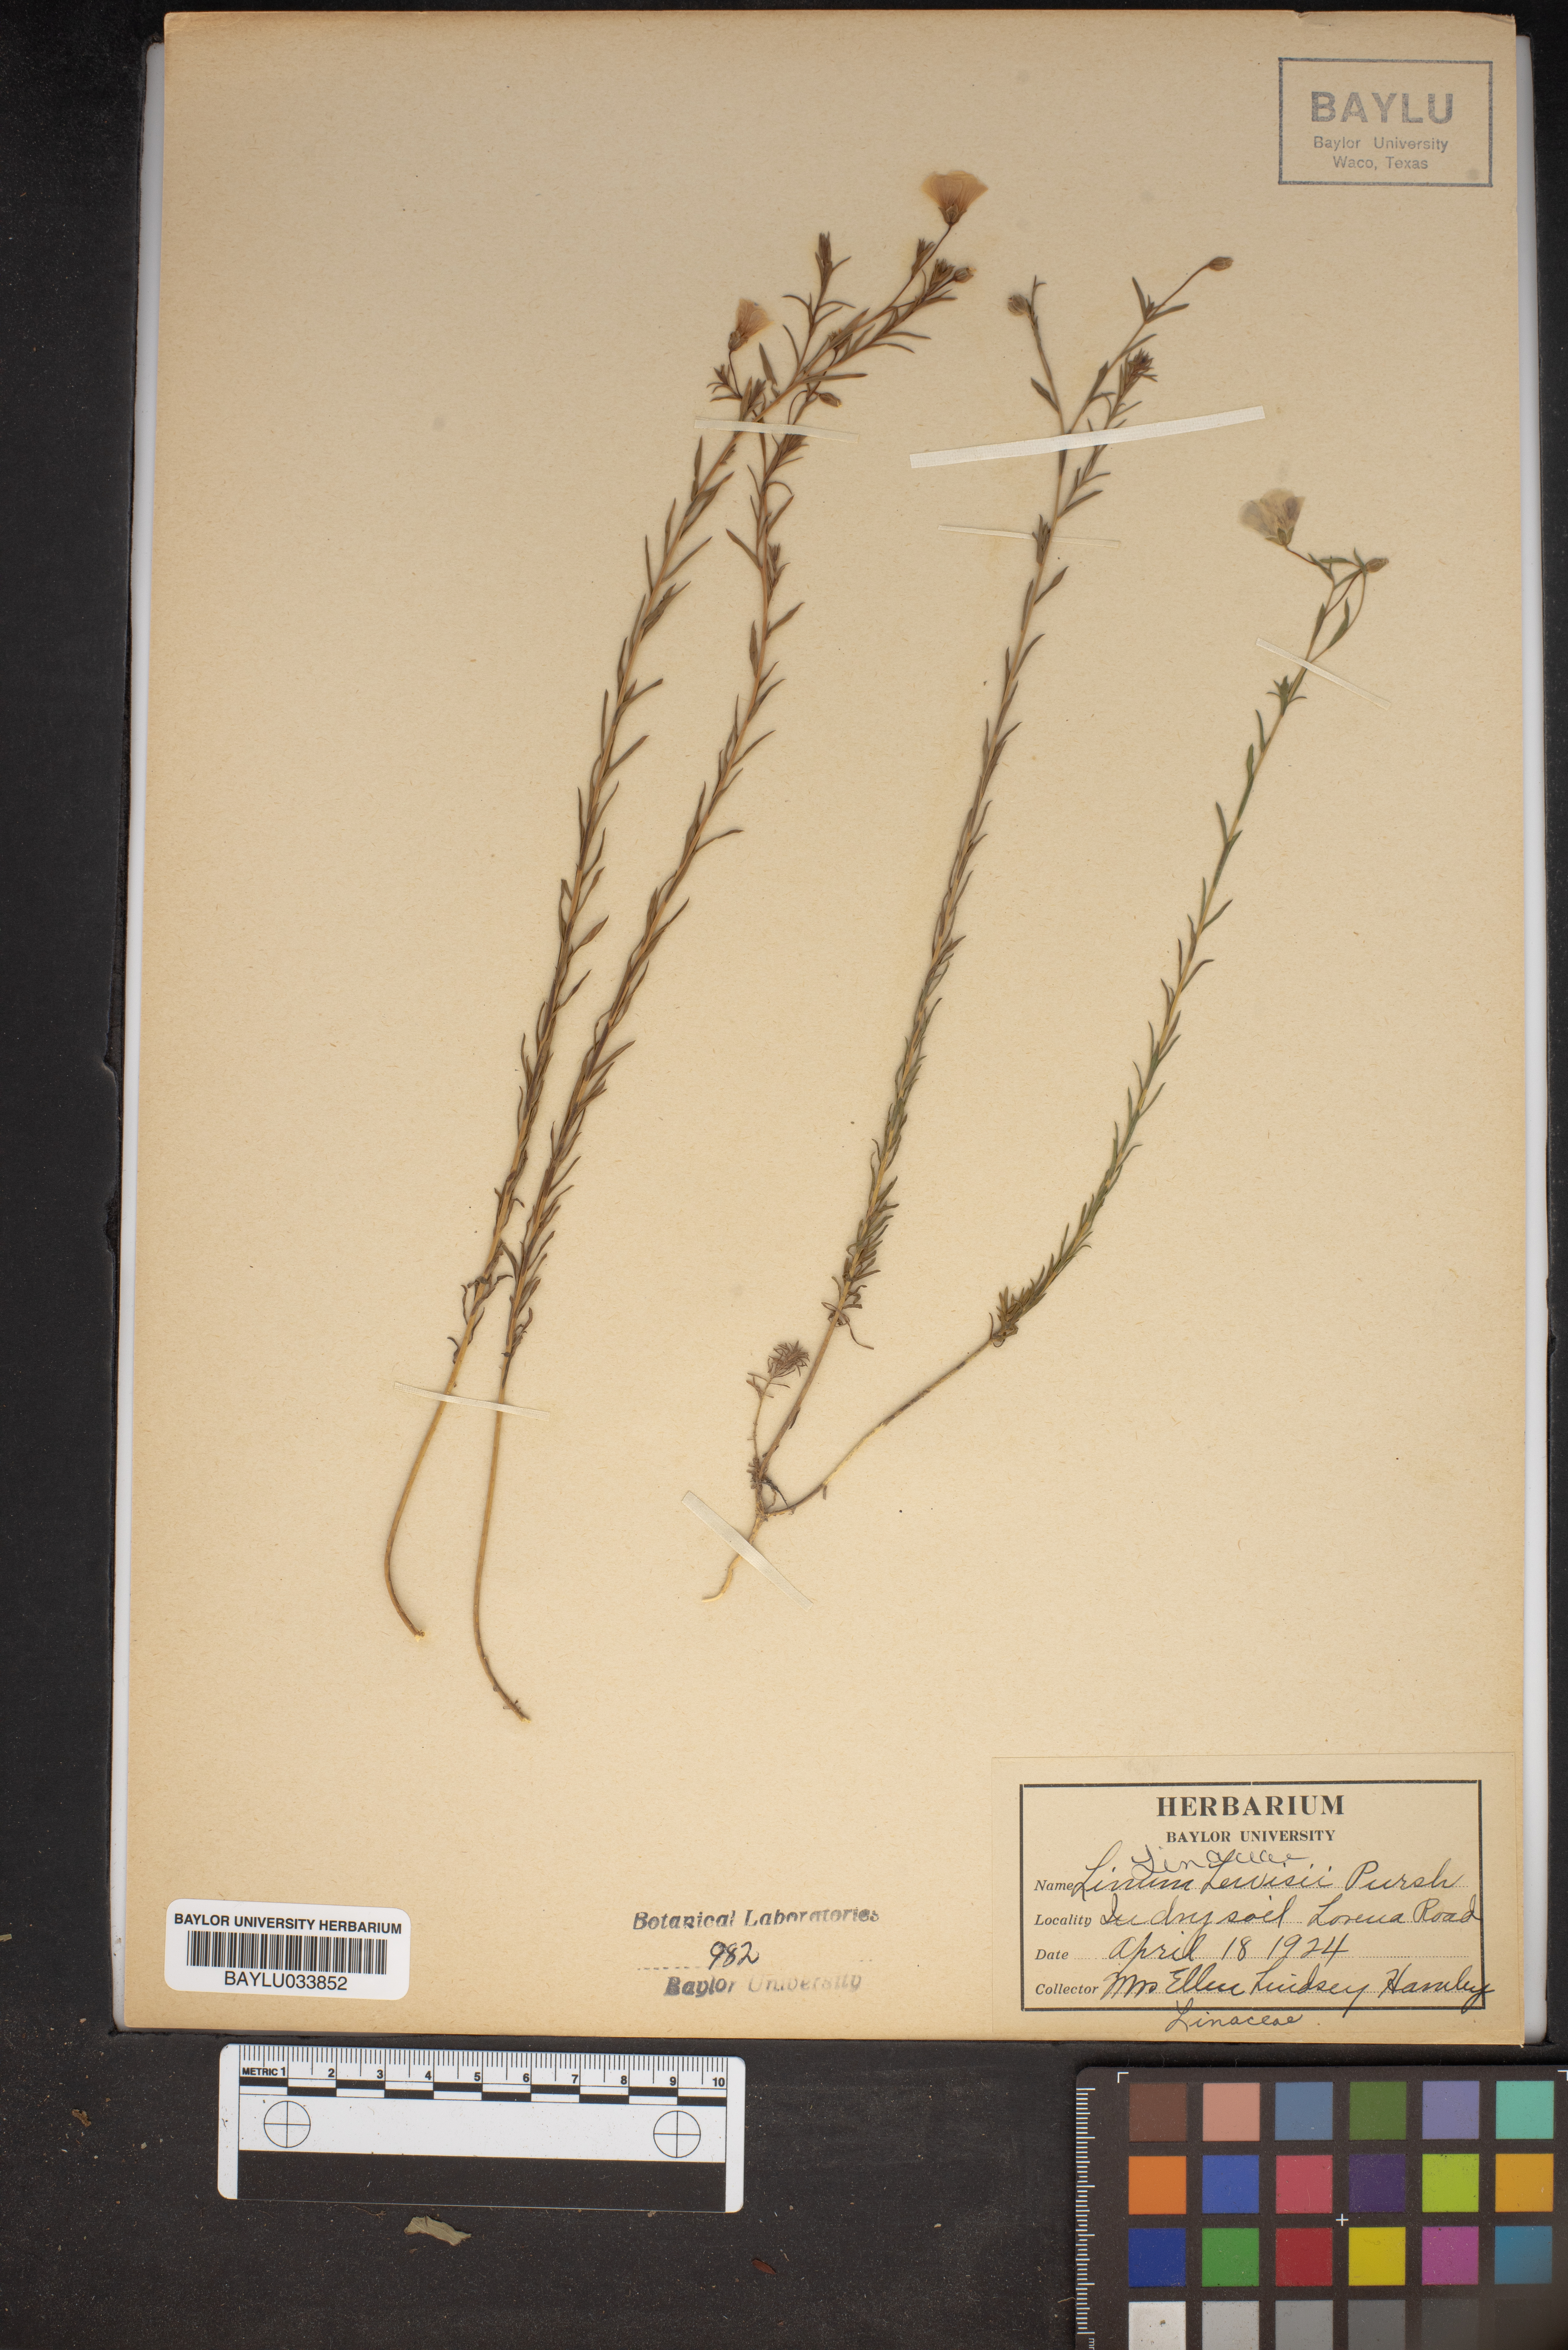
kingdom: Plantae
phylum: Tracheophyta
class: Magnoliopsida
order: Malpighiales
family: Linaceae
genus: Linum
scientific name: Linum lewisii
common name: Prairie flax
